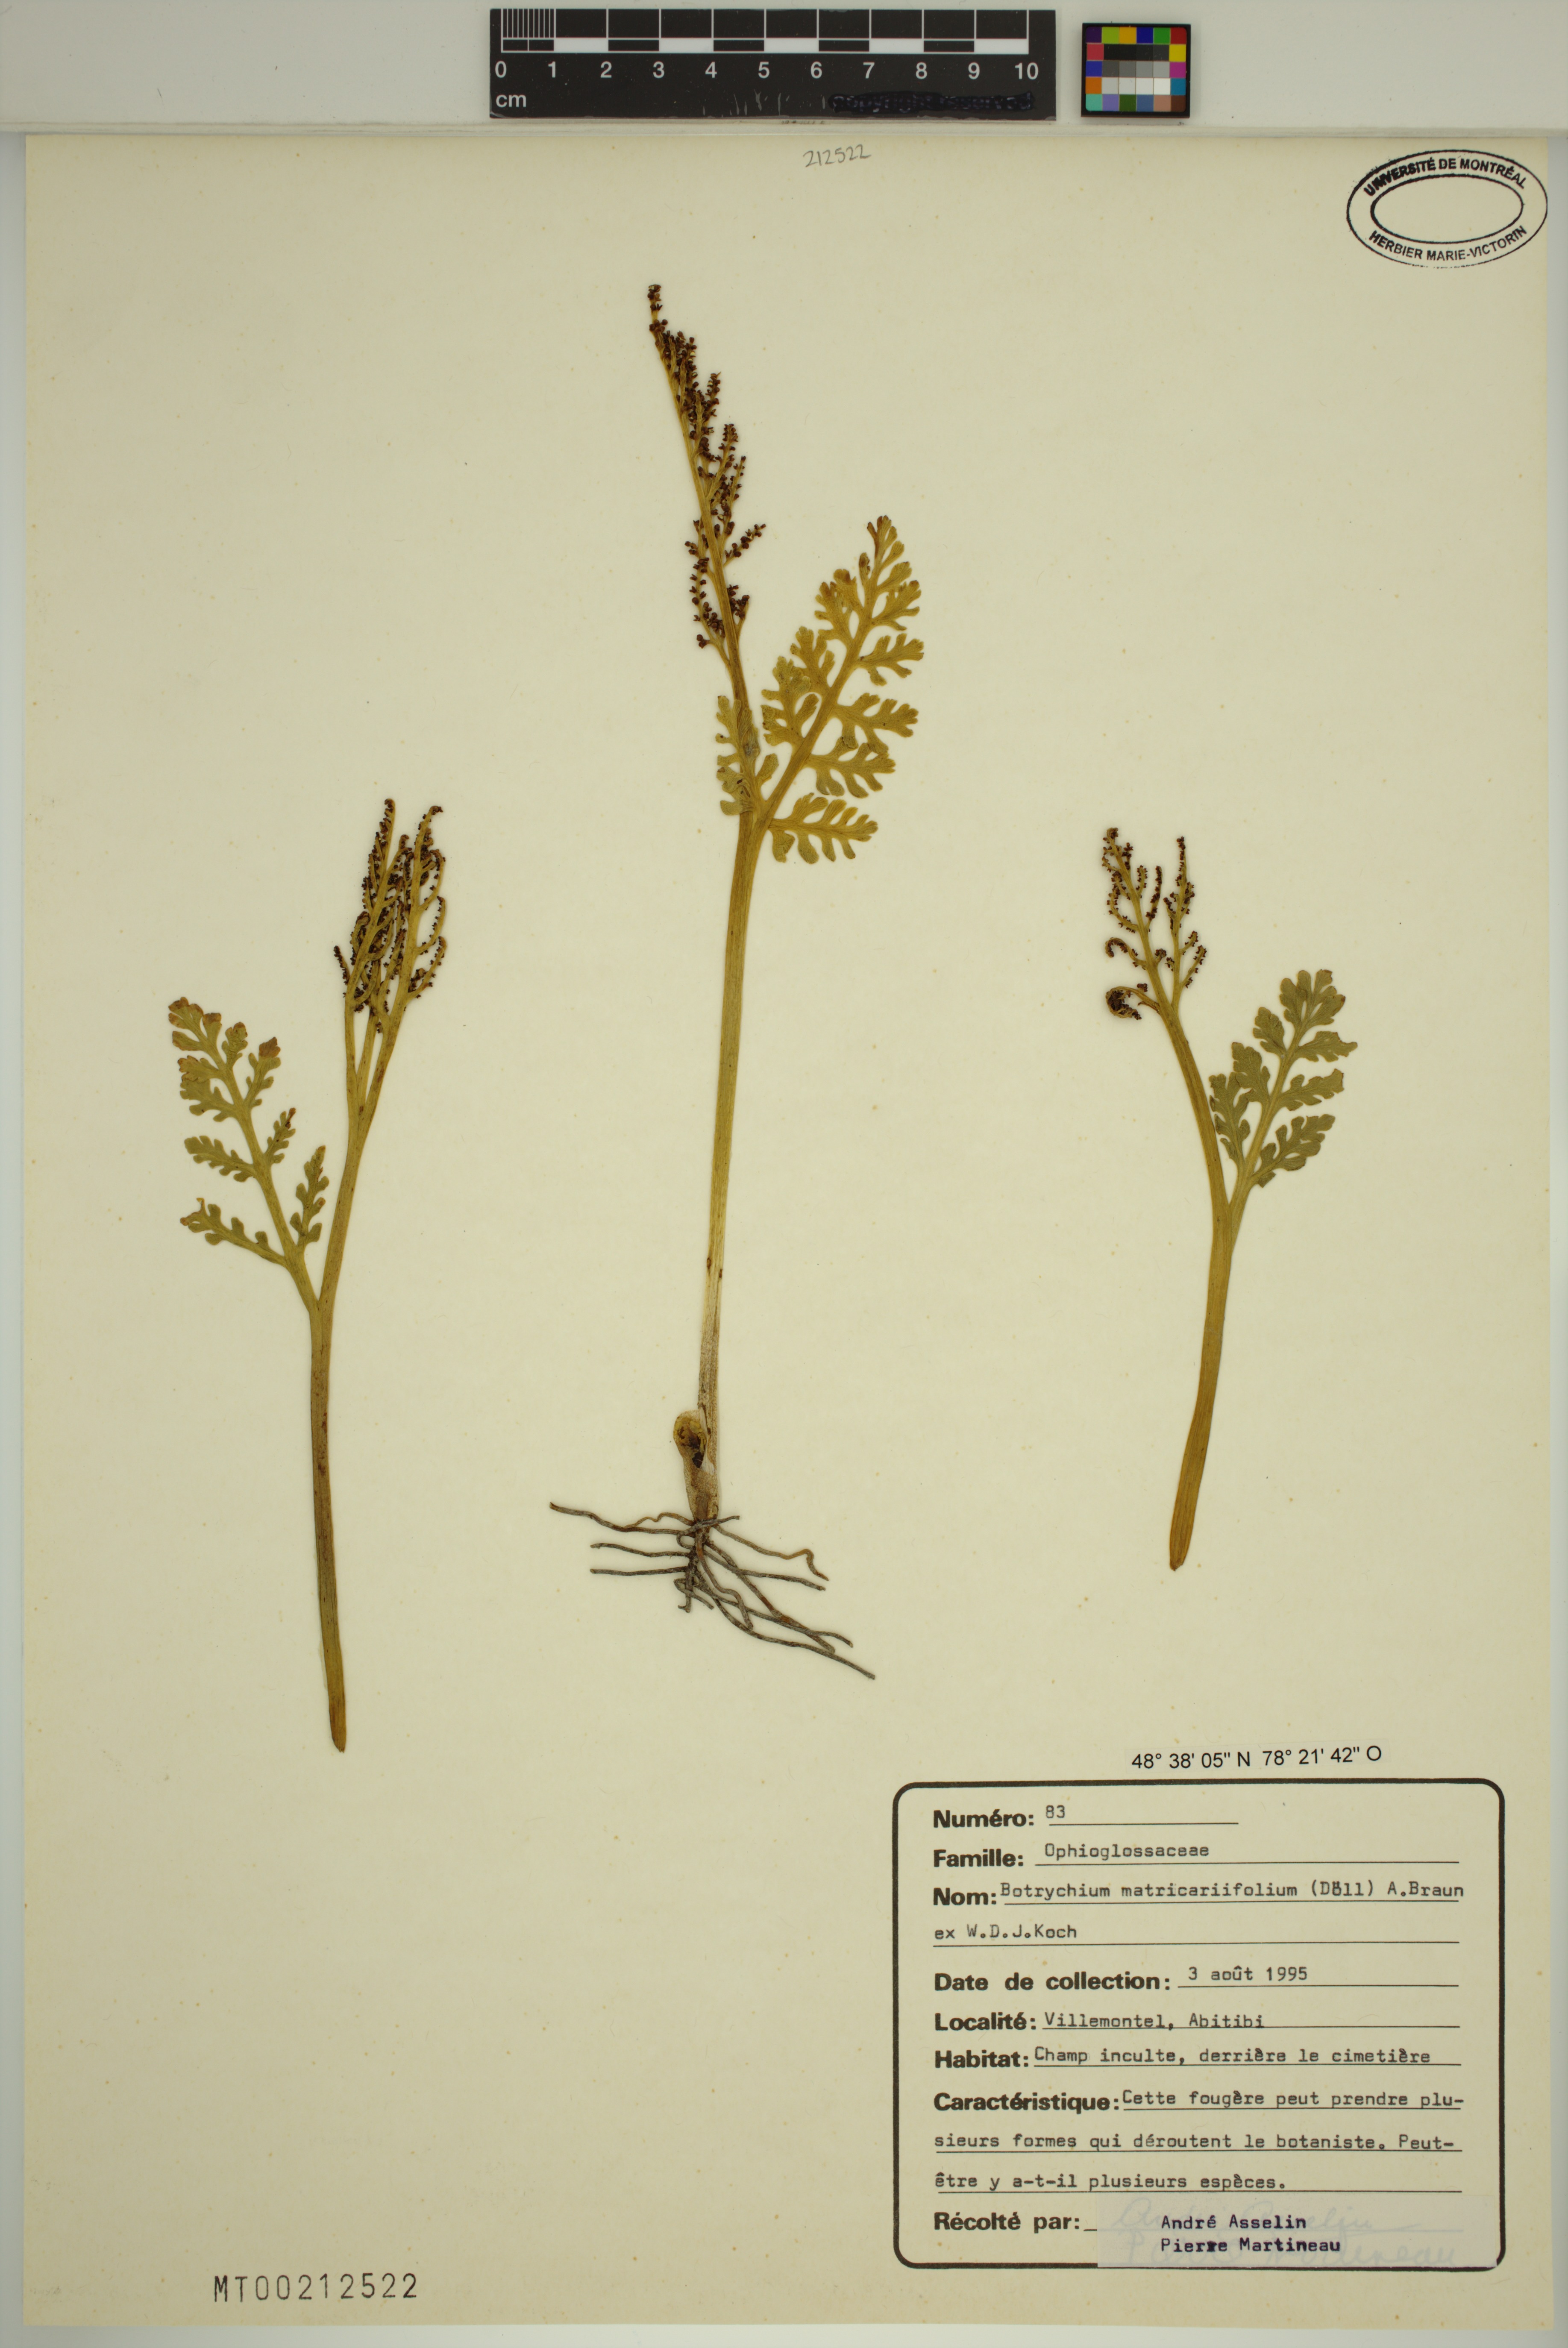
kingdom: Plantae
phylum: Tracheophyta
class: Polypodiopsida
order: Ophioglossales
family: Ophioglossaceae
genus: Botrychium
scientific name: Botrychium matricariifolium
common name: Branched moonwort
